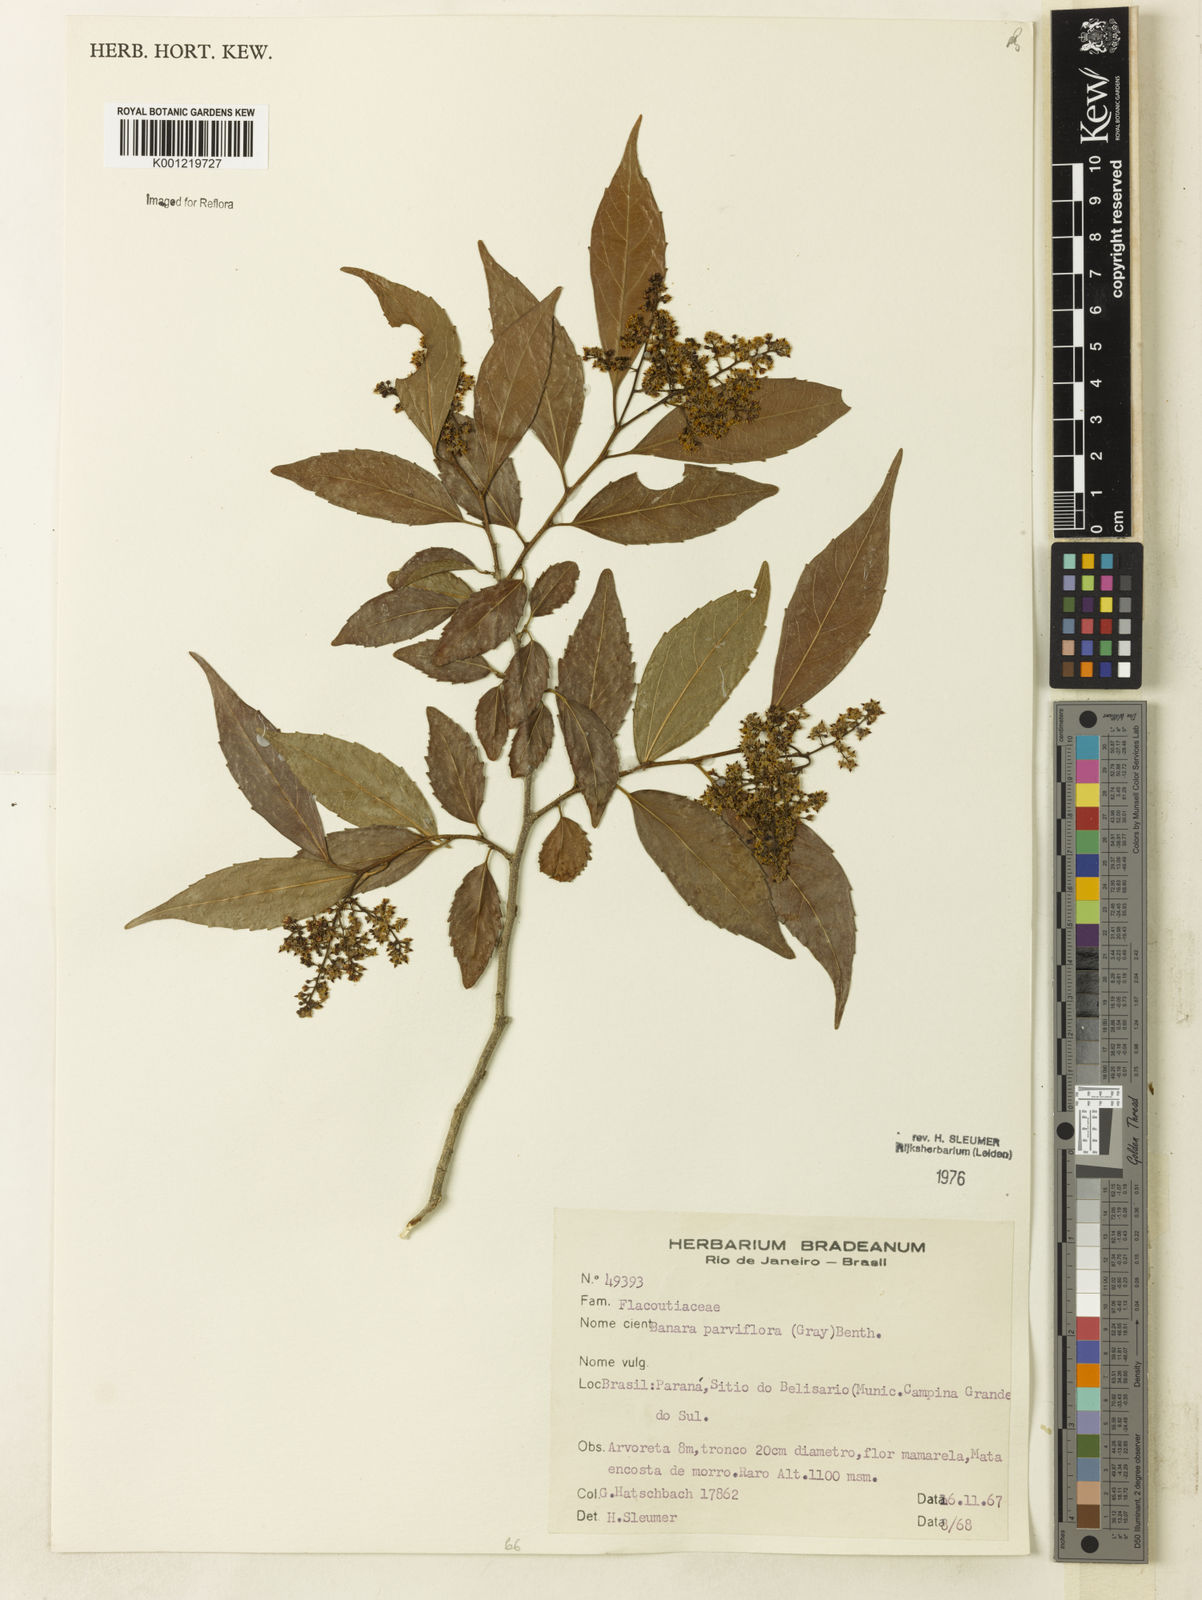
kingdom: Plantae
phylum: Tracheophyta
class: Magnoliopsida
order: Malpighiales
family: Salicaceae
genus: Banara
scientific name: Banara parviflora
